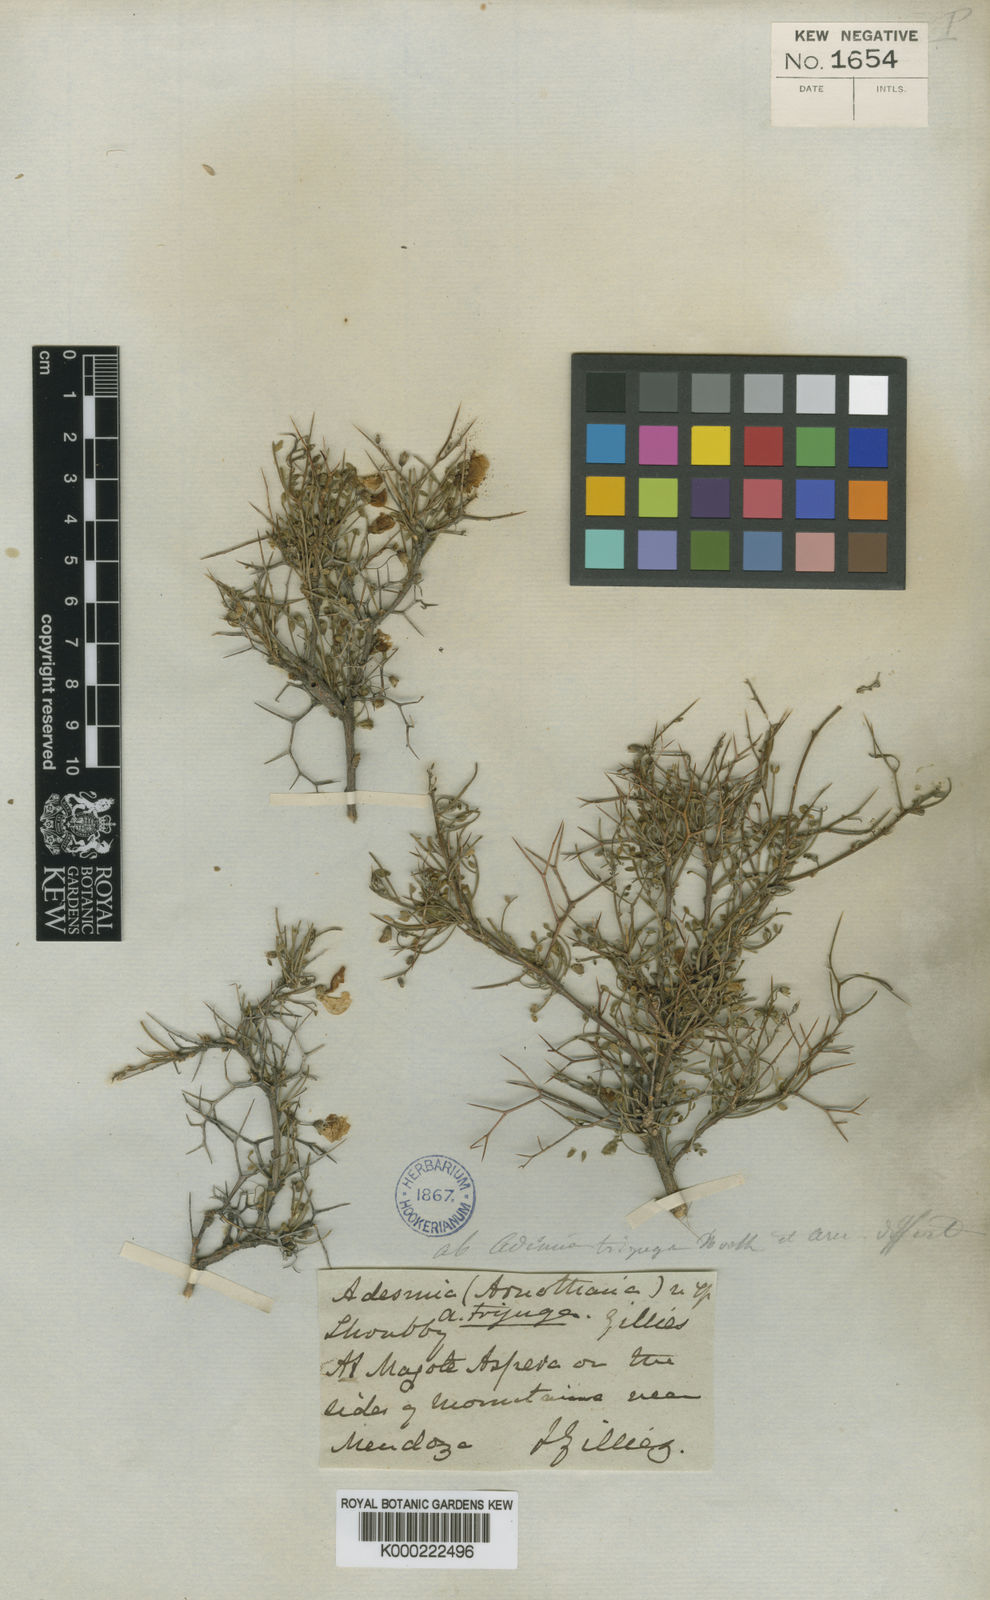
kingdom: Plantae
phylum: Tracheophyta
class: Magnoliopsida
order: Fabales
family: Fabaceae
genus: Adesmia
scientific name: Adesmia trijuga
